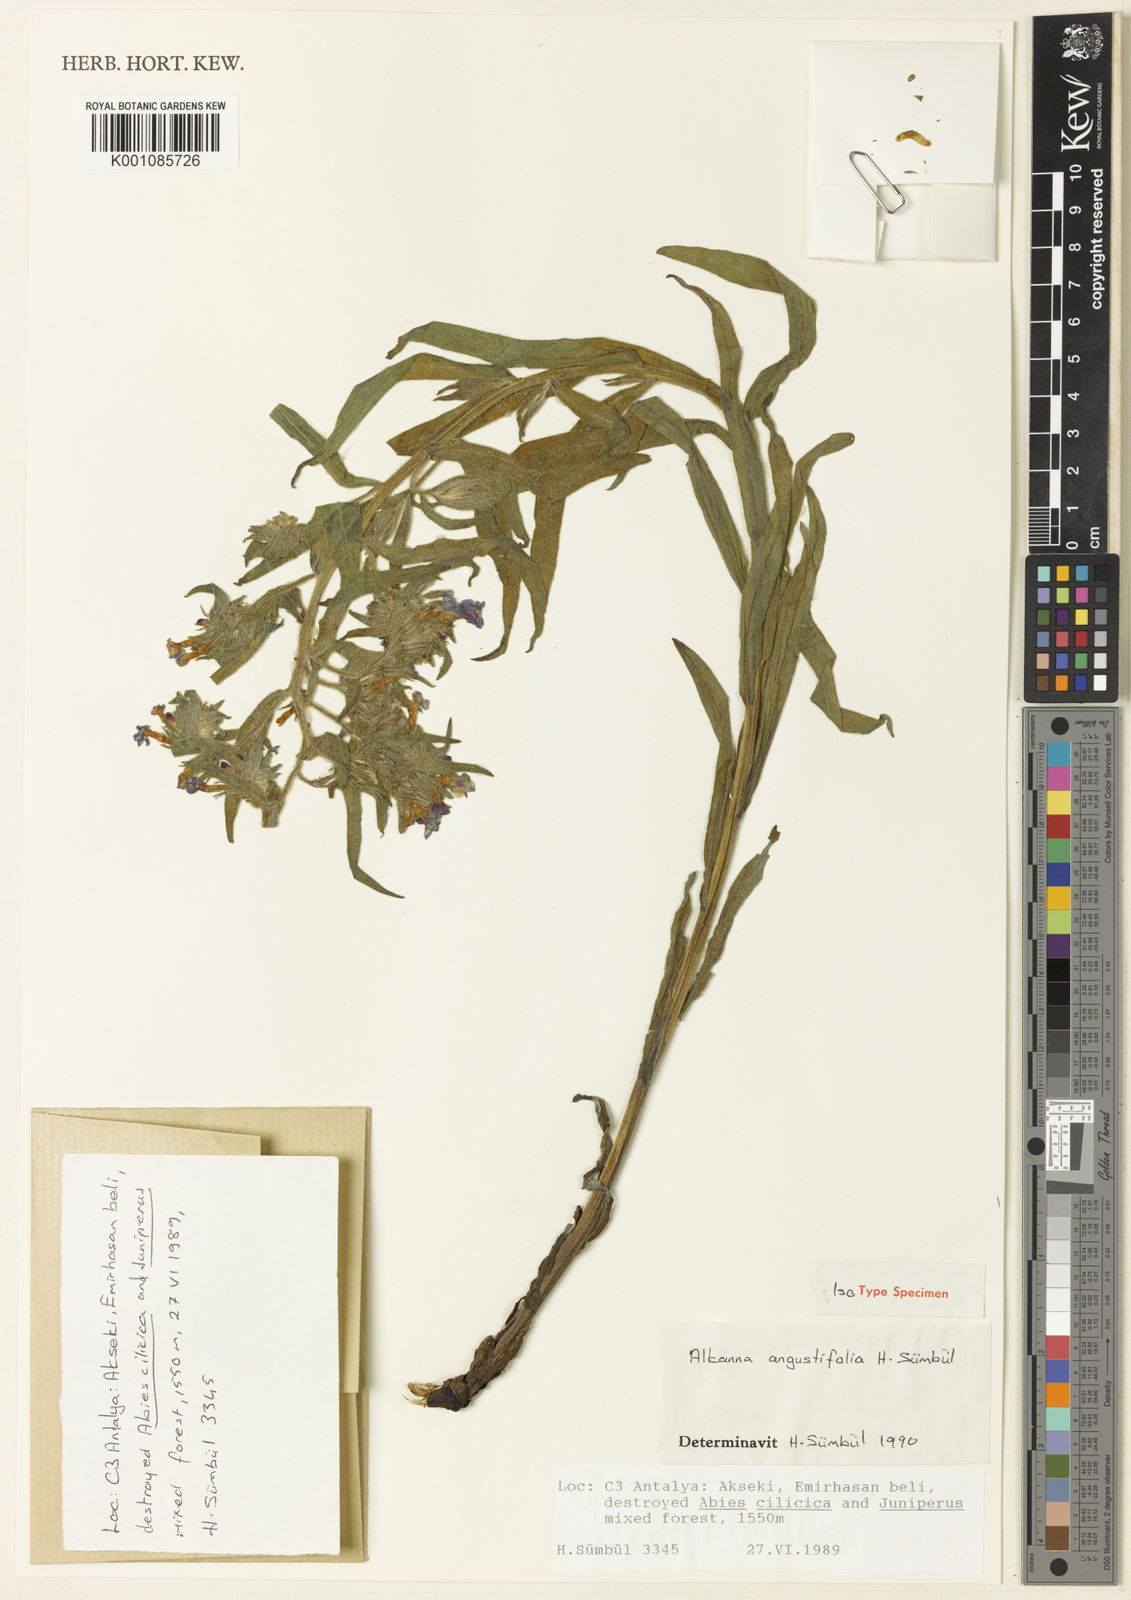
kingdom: Plantae
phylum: Tracheophyta
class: Magnoliopsida
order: Boraginales
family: Boraginaceae
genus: Alkanna
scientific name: Alkanna
